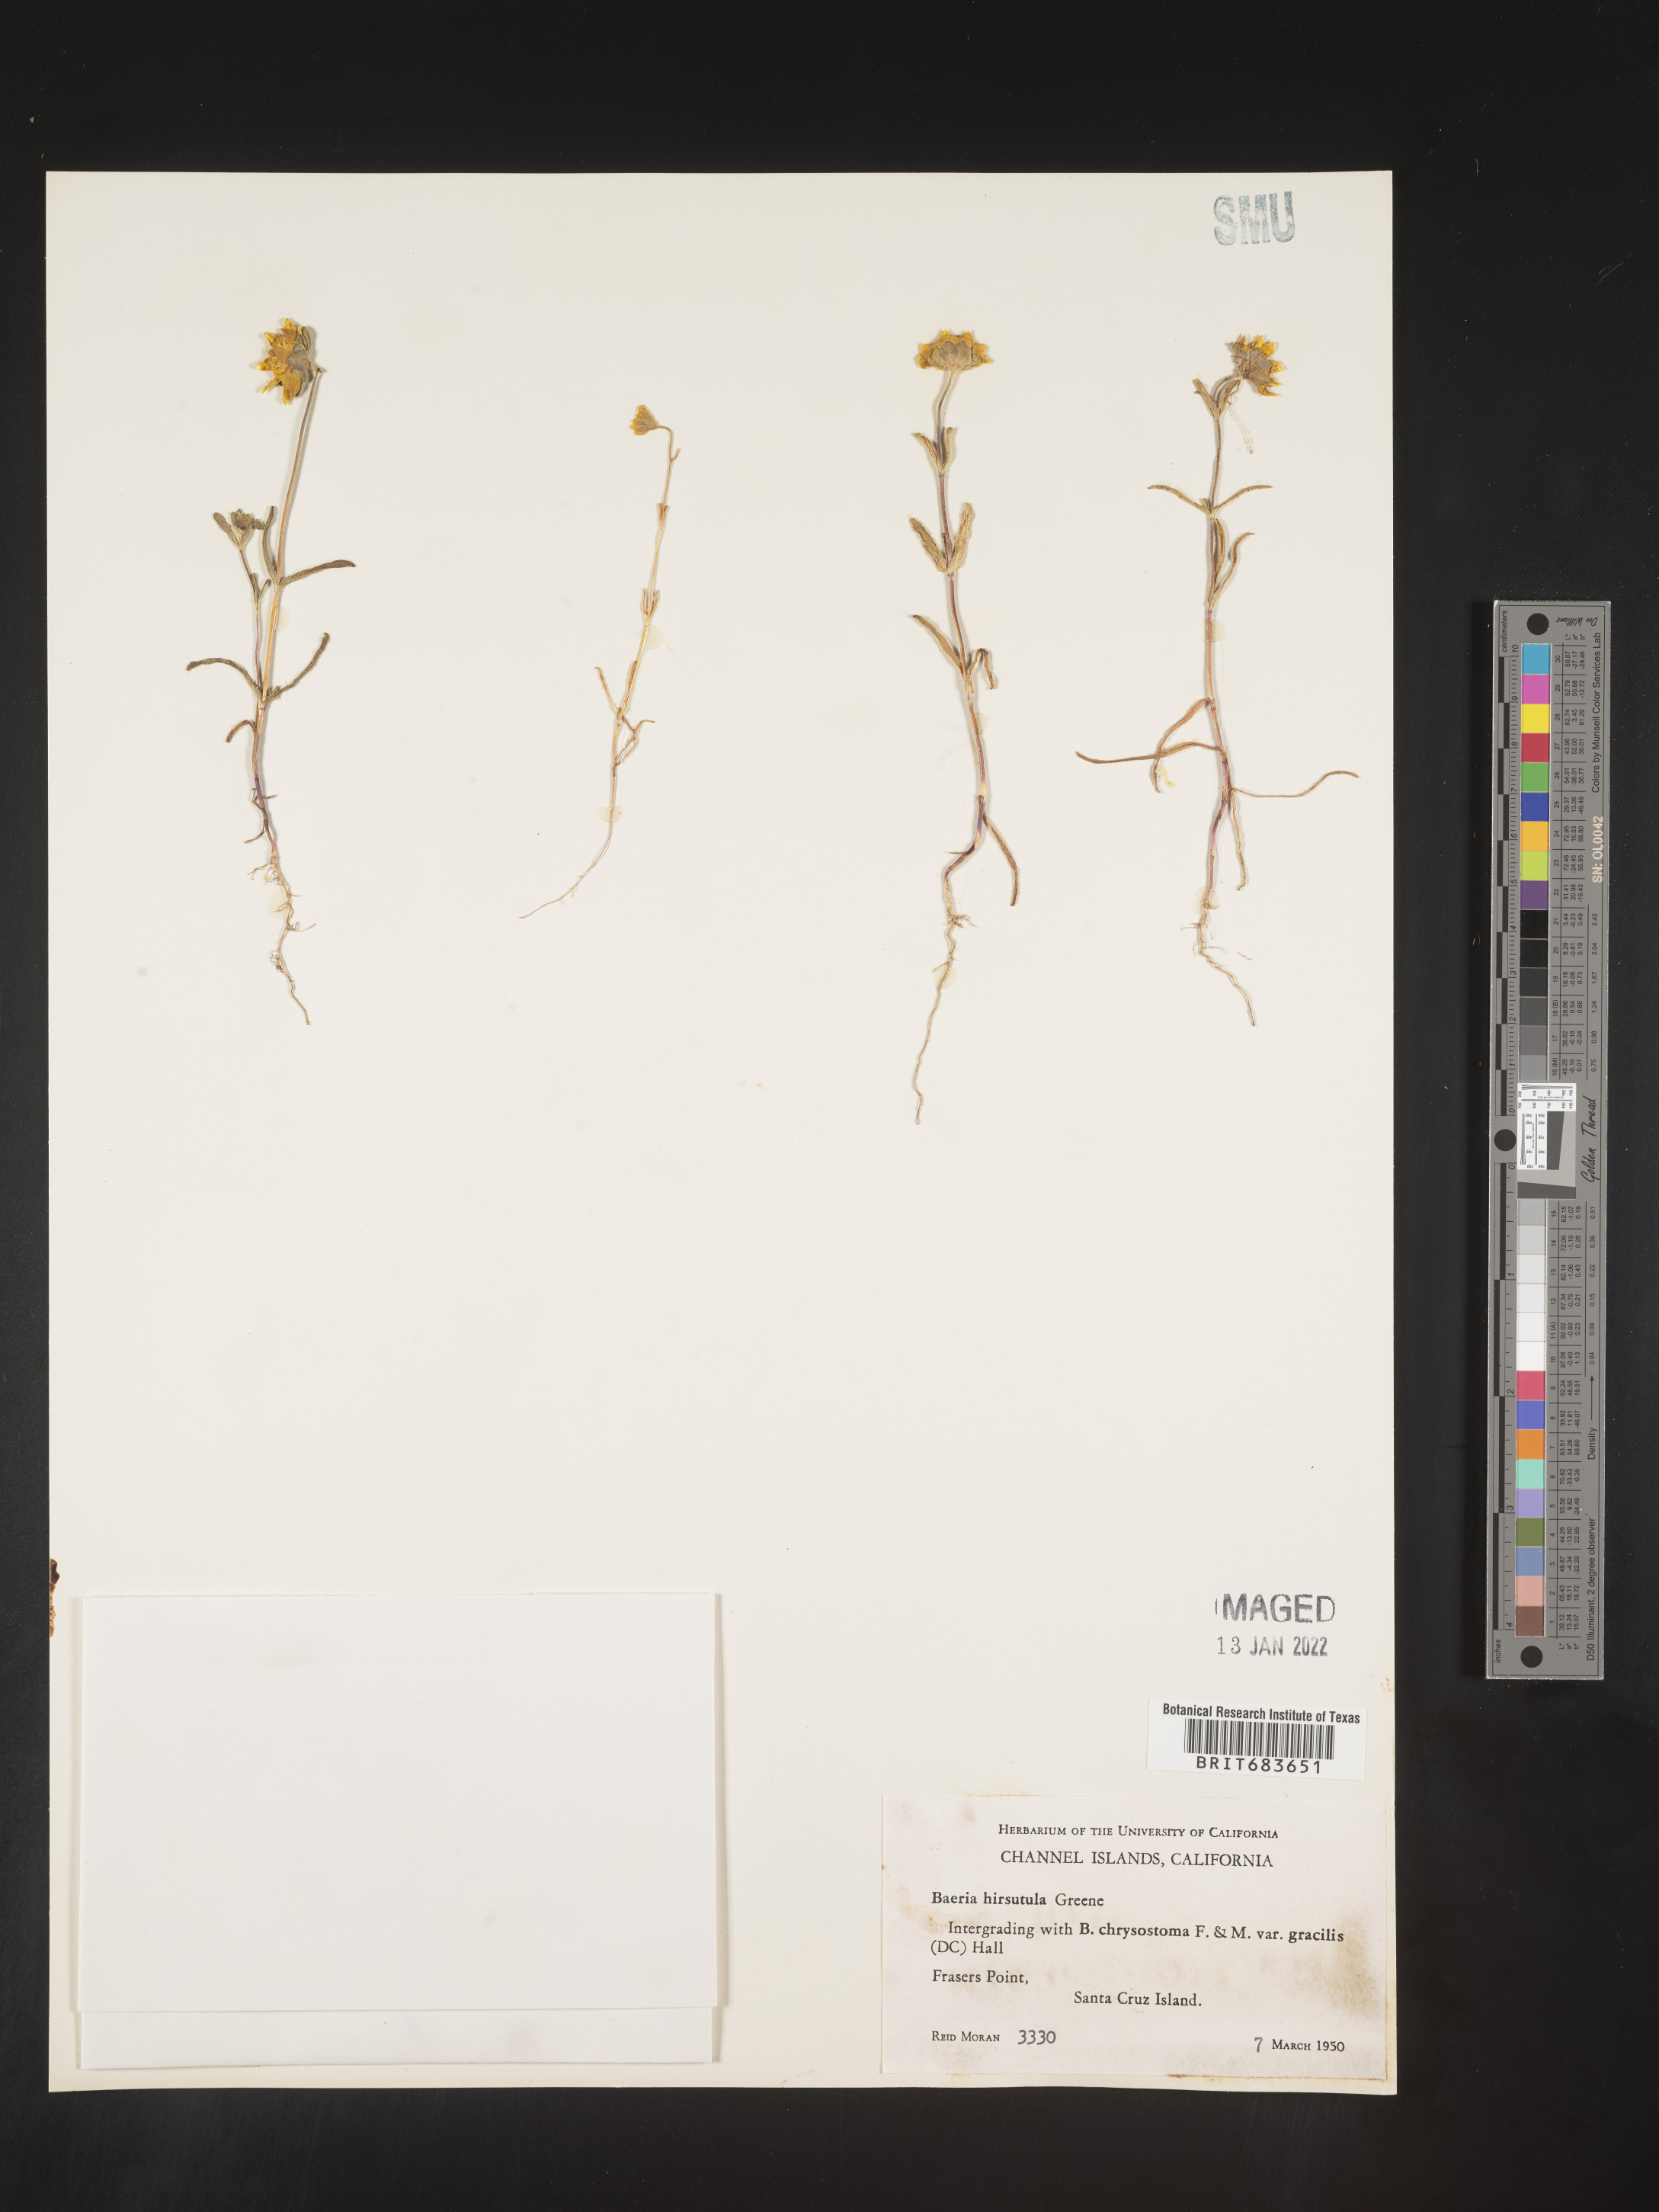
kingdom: Plantae
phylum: Tracheophyta
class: Magnoliopsida
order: Asterales
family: Asteraceae
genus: Lasthenia
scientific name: Lasthenia
